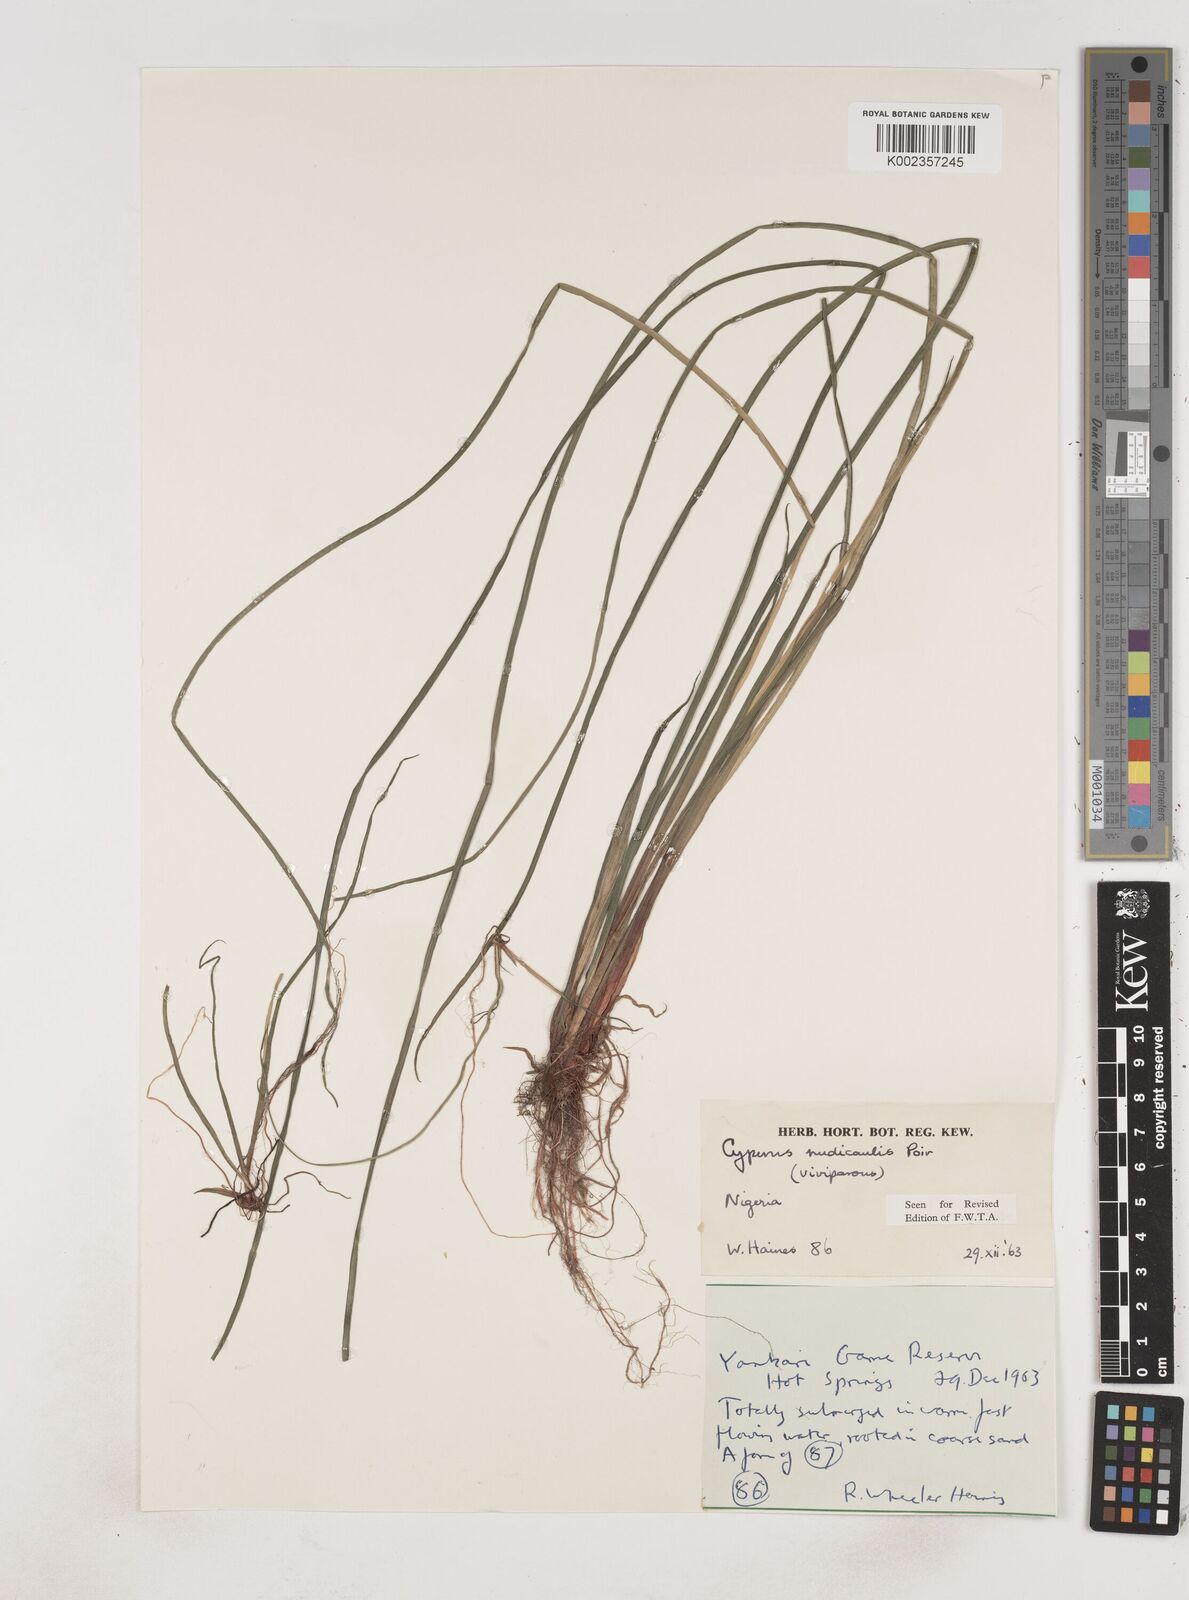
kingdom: Plantae
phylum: Tracheophyta
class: Liliopsida
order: Poales
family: Cyperaceae
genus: Cyperus
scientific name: Cyperus pectinatus
